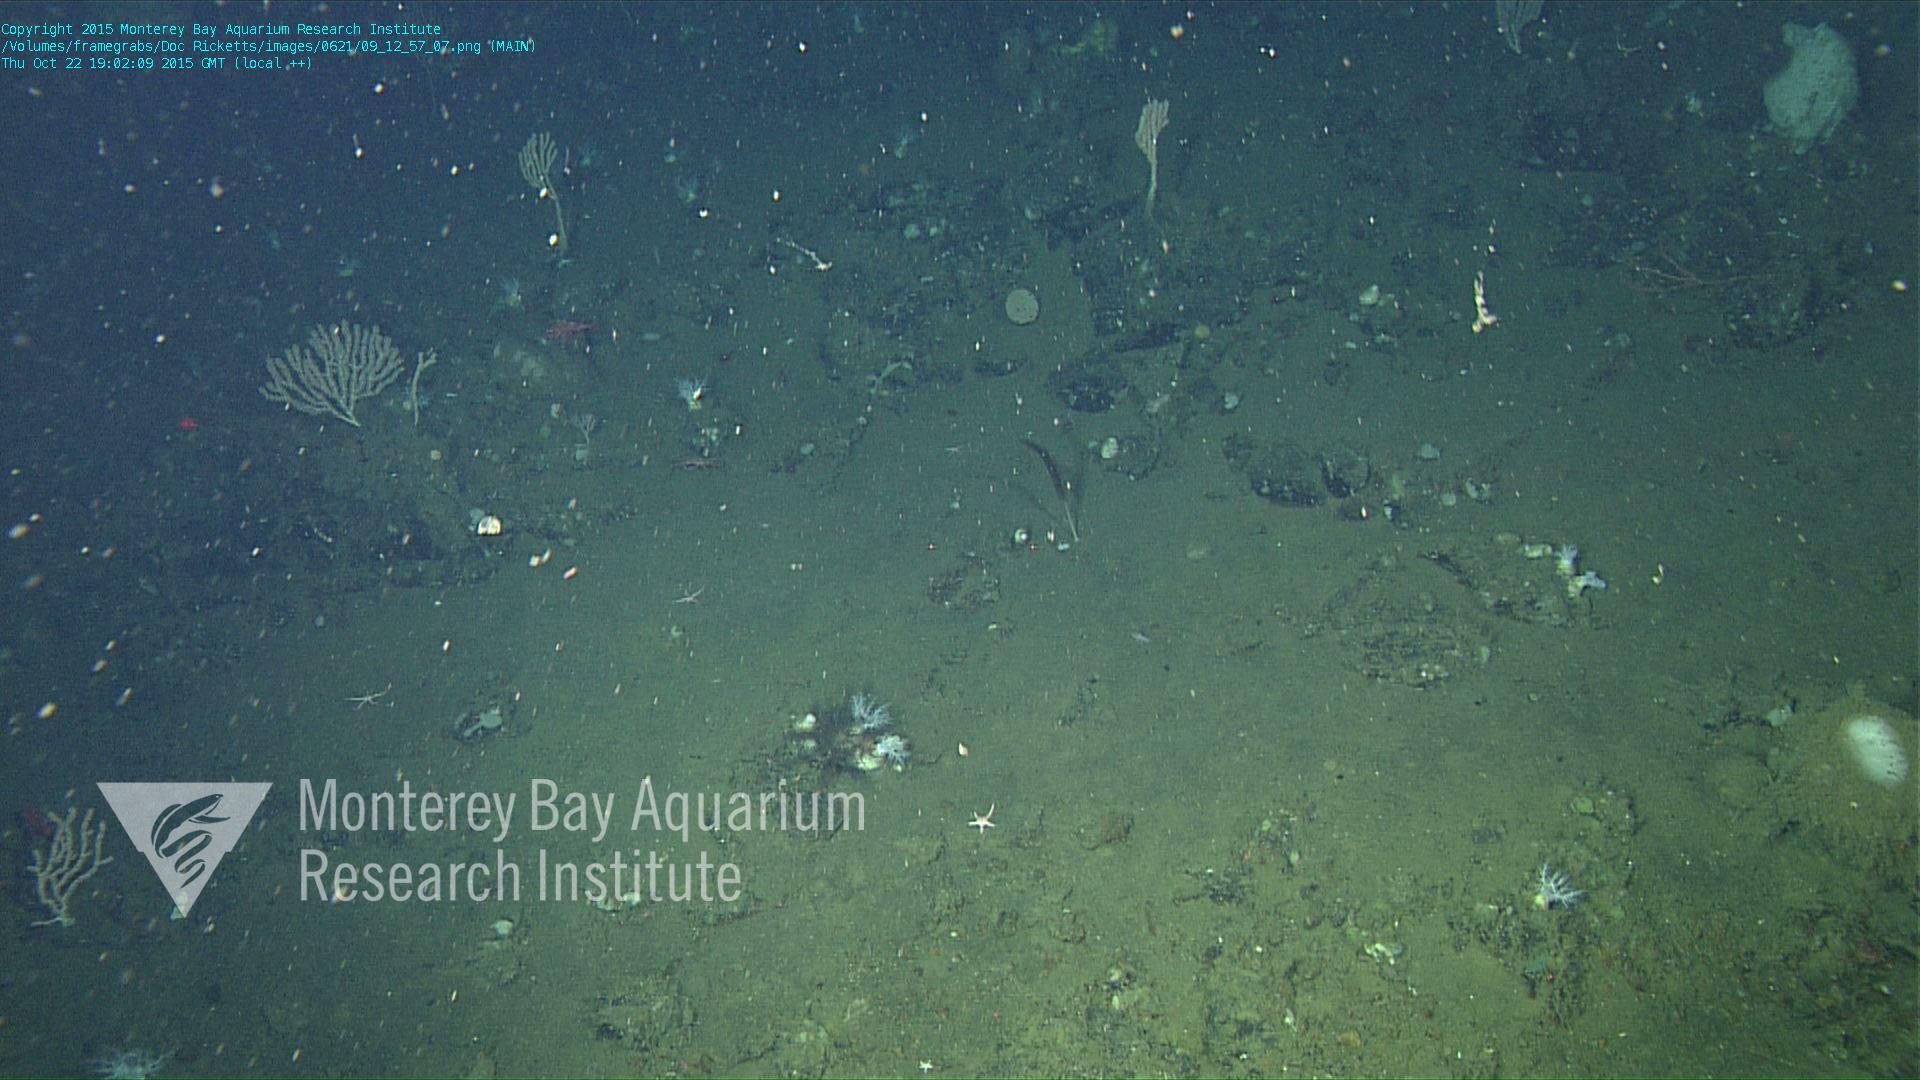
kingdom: Animalia
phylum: Cnidaria
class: Anthozoa
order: Scleralcyonacea
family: Funiculinidae
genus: Funiculina
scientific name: Funiculina
